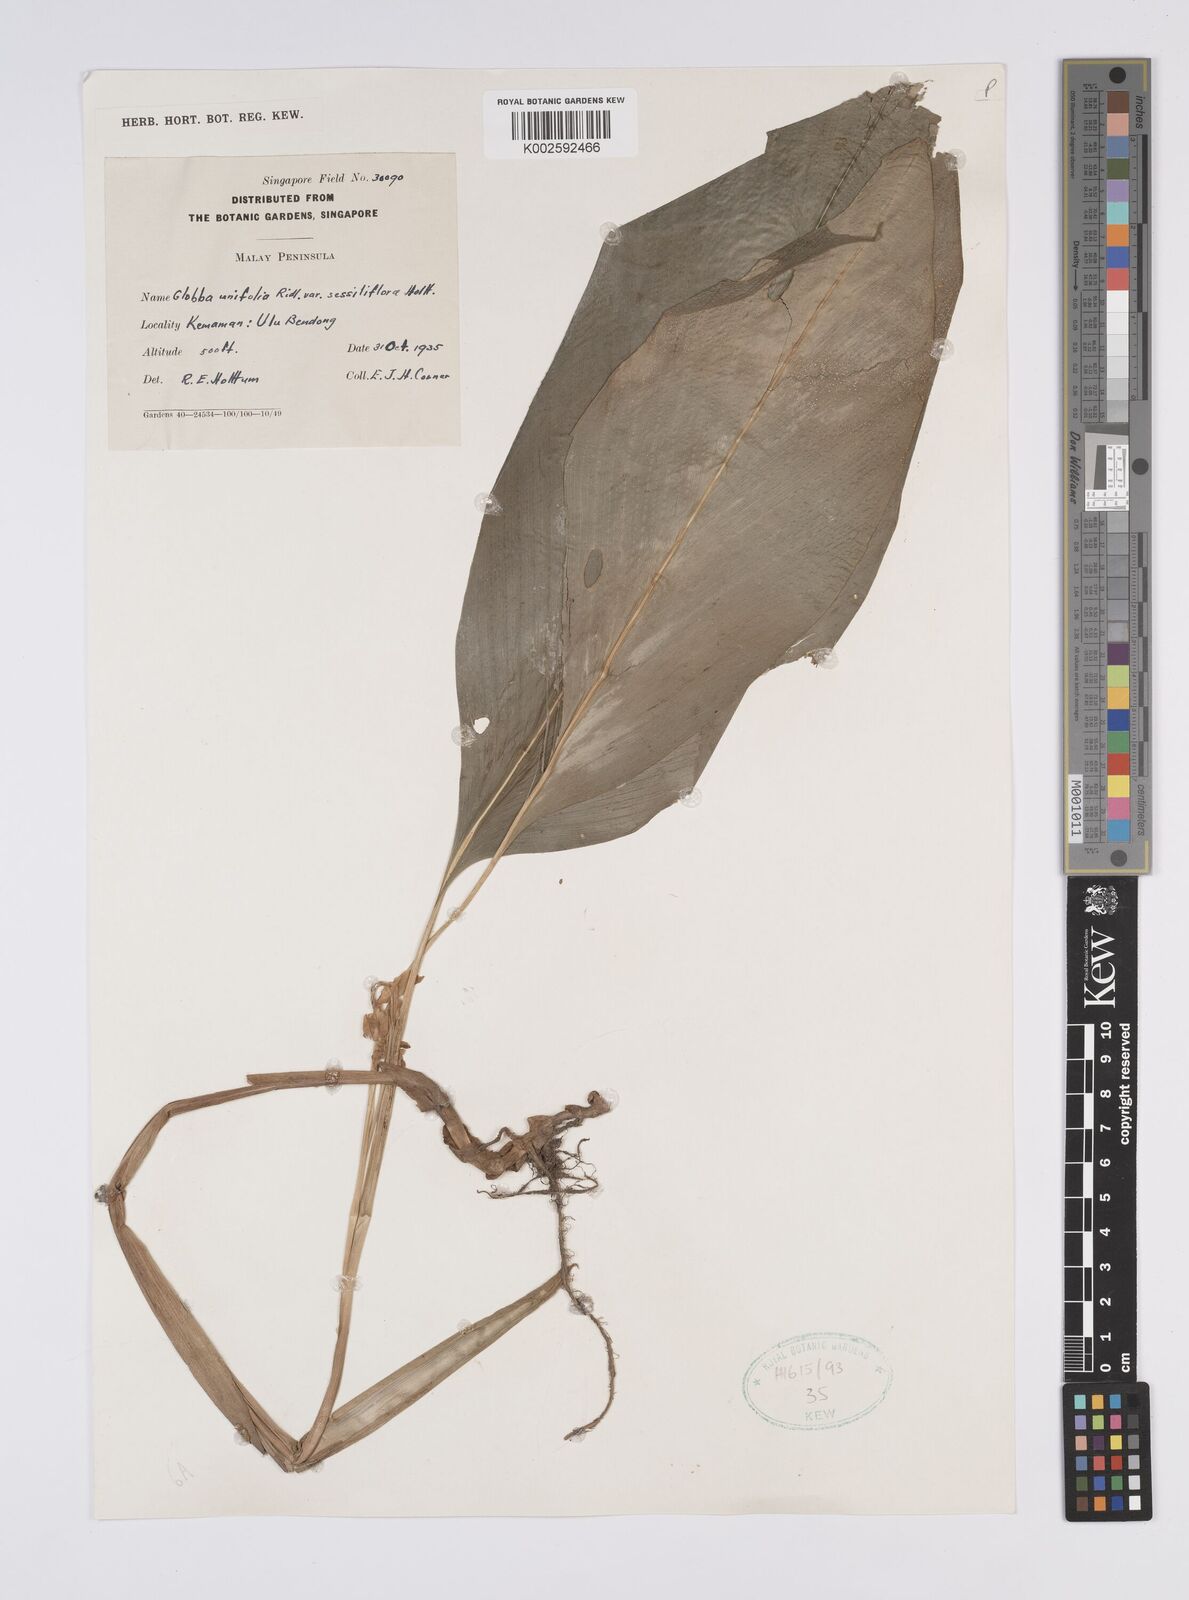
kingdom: Plantae
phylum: Tracheophyta
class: Liliopsida
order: Zingiberales
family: Zingiberaceae
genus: Globba
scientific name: Globba unifolia
